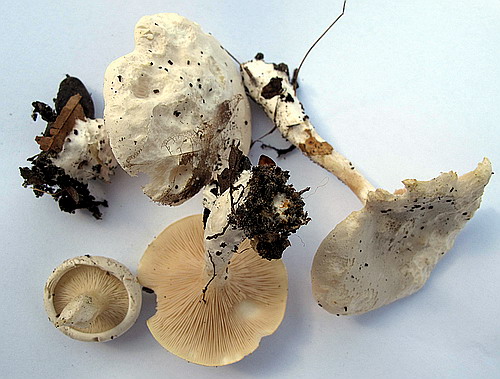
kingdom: Fungi
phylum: Basidiomycota
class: Agaricomycetes
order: Agaricales
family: Entolomataceae
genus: Clitopilus
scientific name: Clitopilus prunulus
